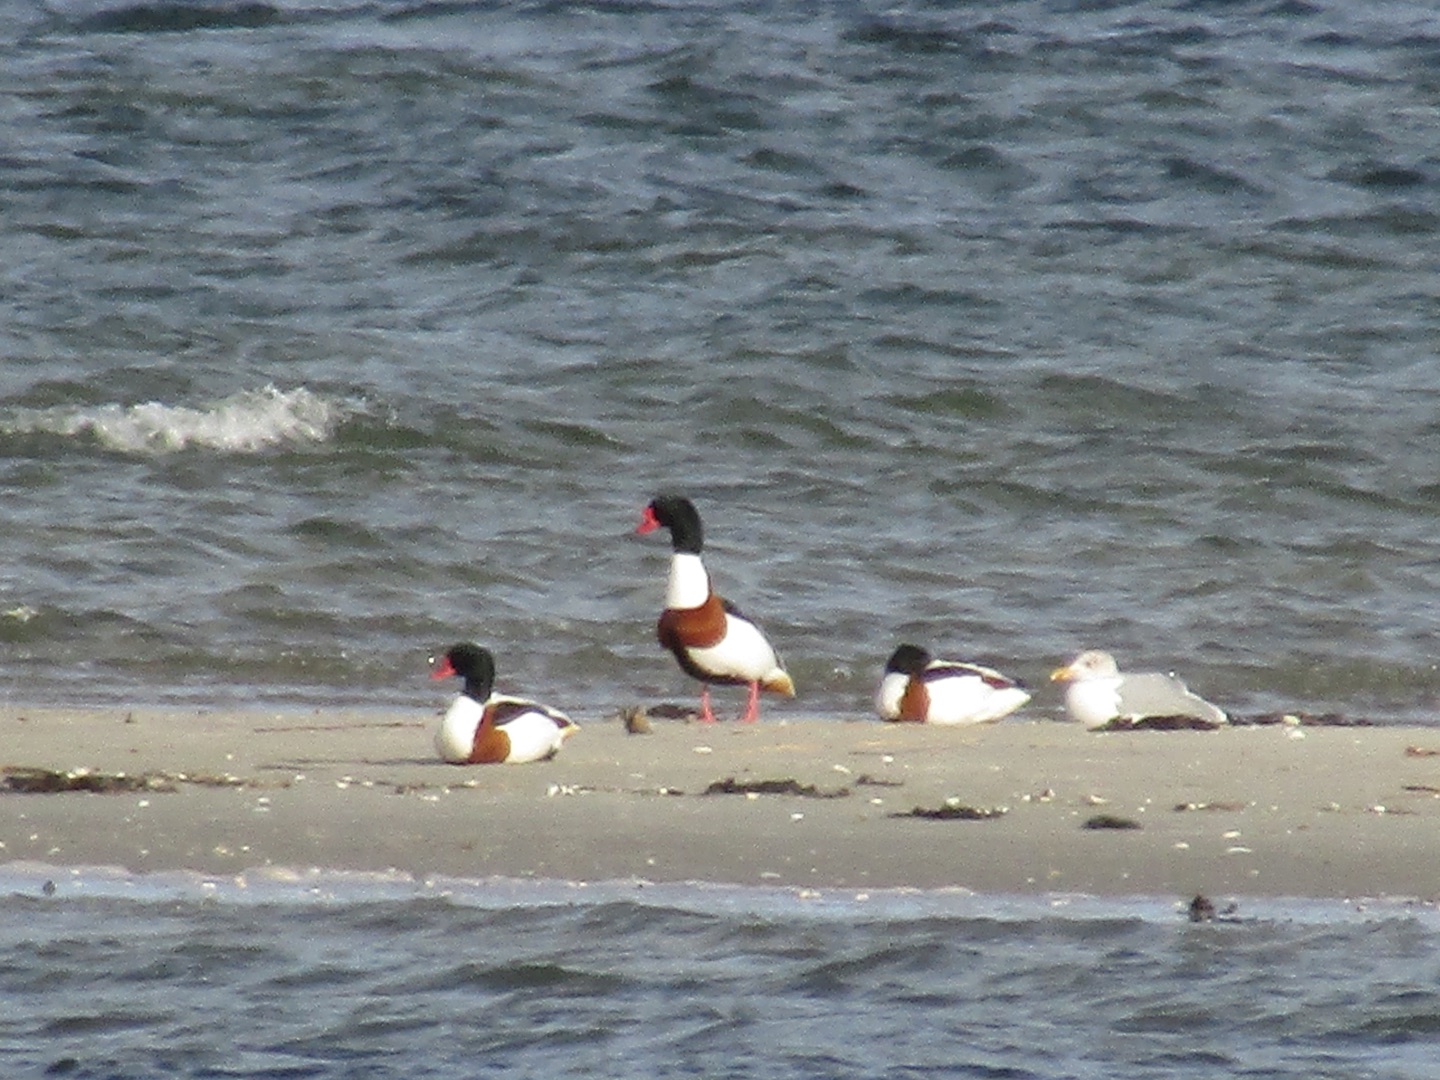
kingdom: Animalia
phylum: Chordata
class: Aves
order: Anseriformes
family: Anatidae
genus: Tadorna
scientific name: Tadorna tadorna
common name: Gravand
